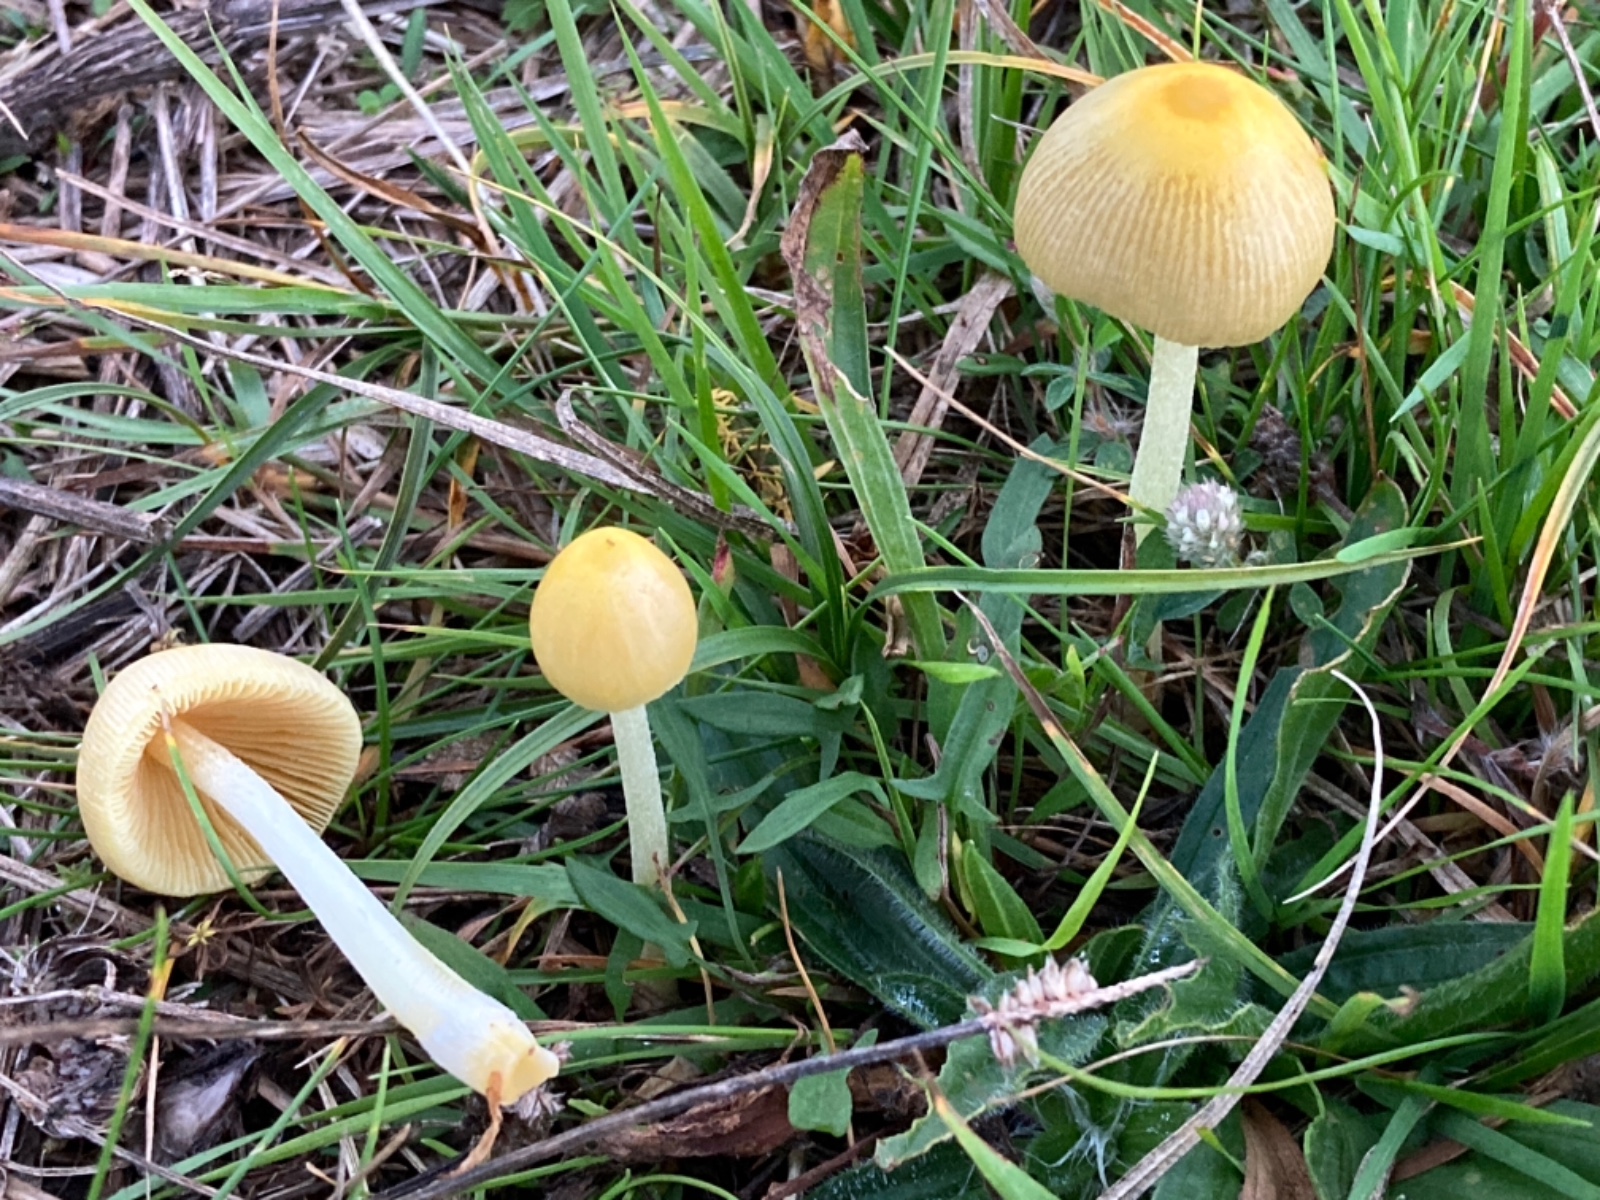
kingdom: Fungi
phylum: Basidiomycota
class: Agaricomycetes
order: Agaricales
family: Bolbitiaceae
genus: Bolbitius
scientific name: Bolbitius titubans
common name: almindelig gulhat
